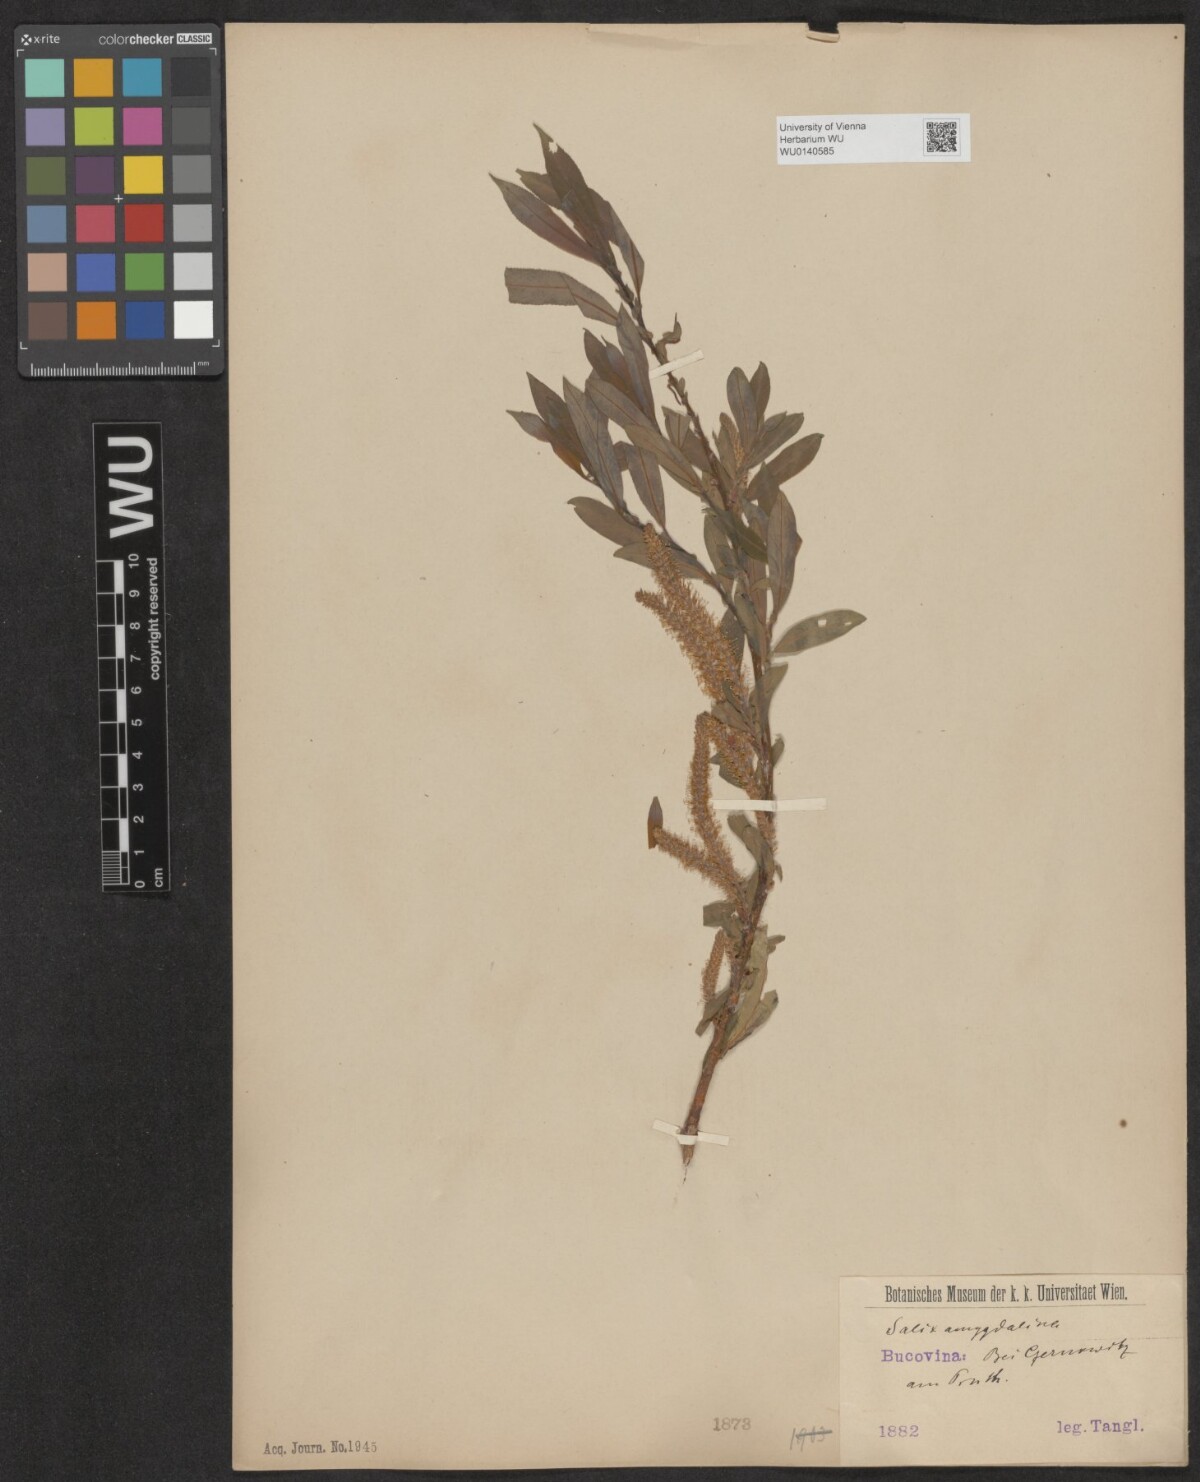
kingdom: Plantae
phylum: Tracheophyta
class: Magnoliopsida
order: Malpighiales
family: Salicaceae
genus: Salix
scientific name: Salix triandra
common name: Almond willow
